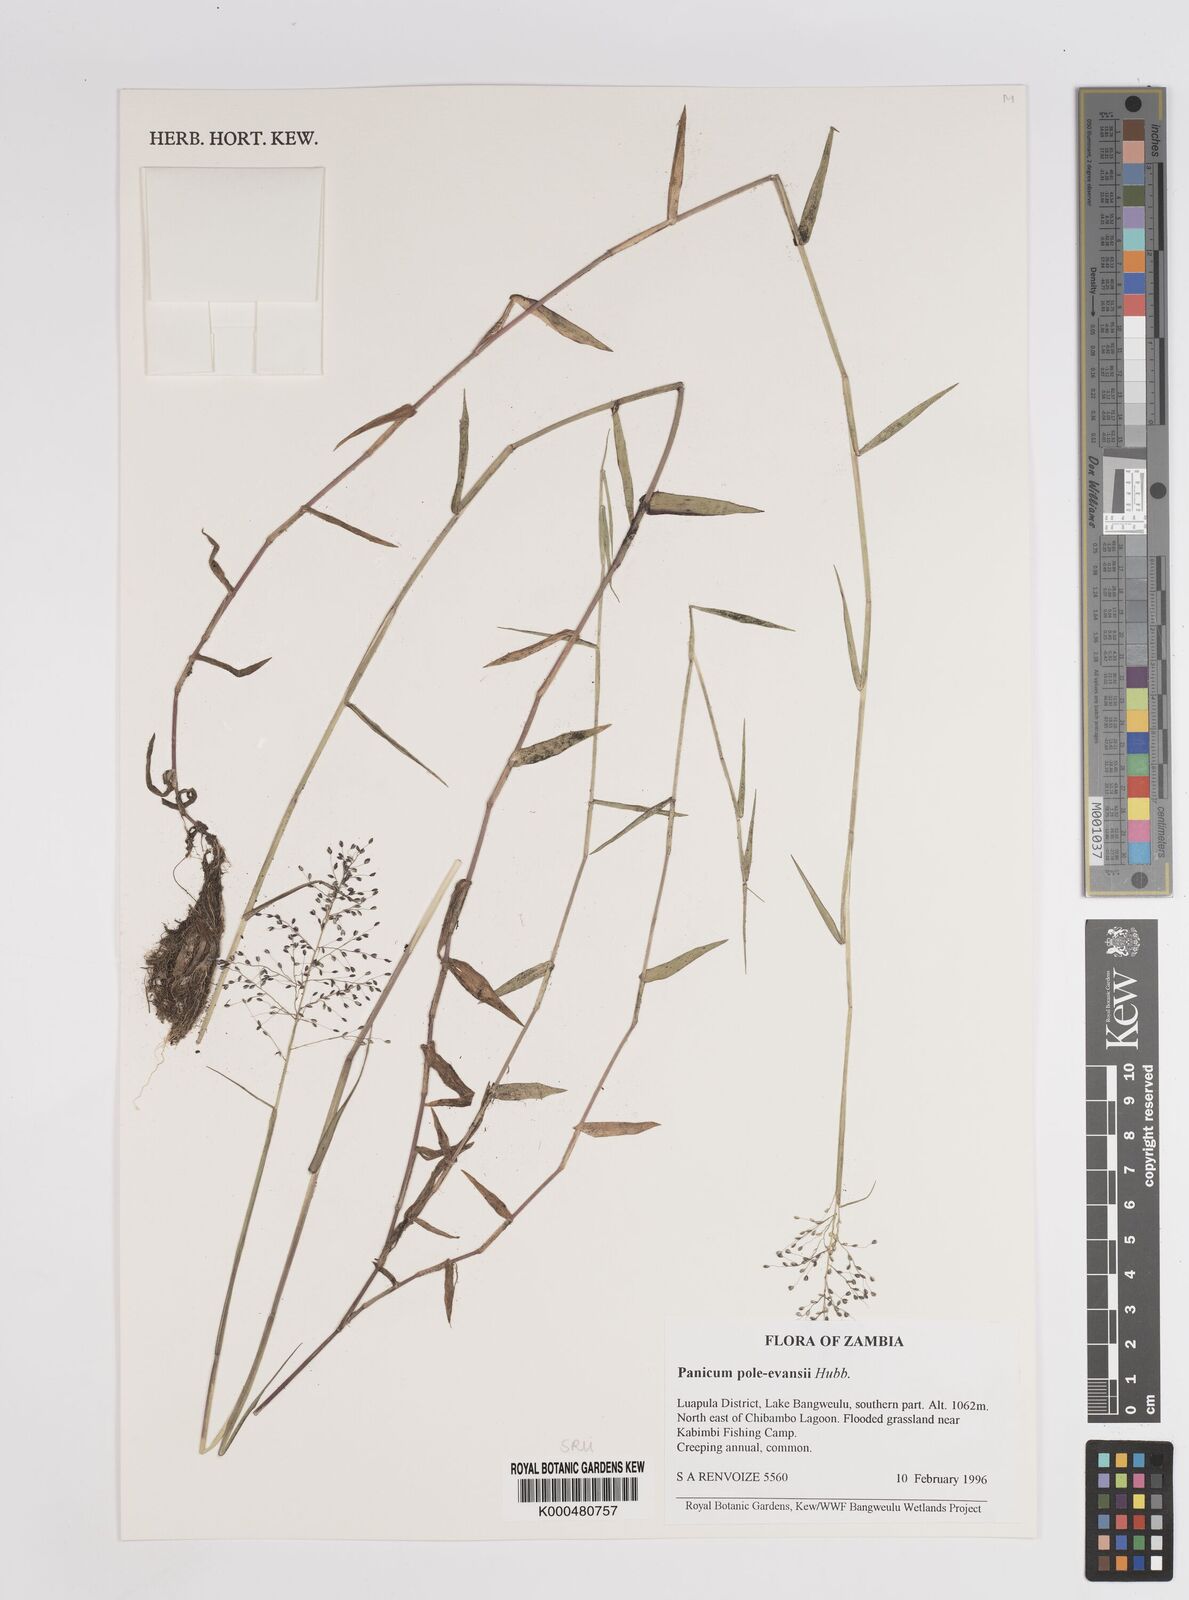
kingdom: Plantae
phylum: Tracheophyta
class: Liliopsida
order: Poales
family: Poaceae
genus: Adenochloa
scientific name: Adenochloa pole-evansii
